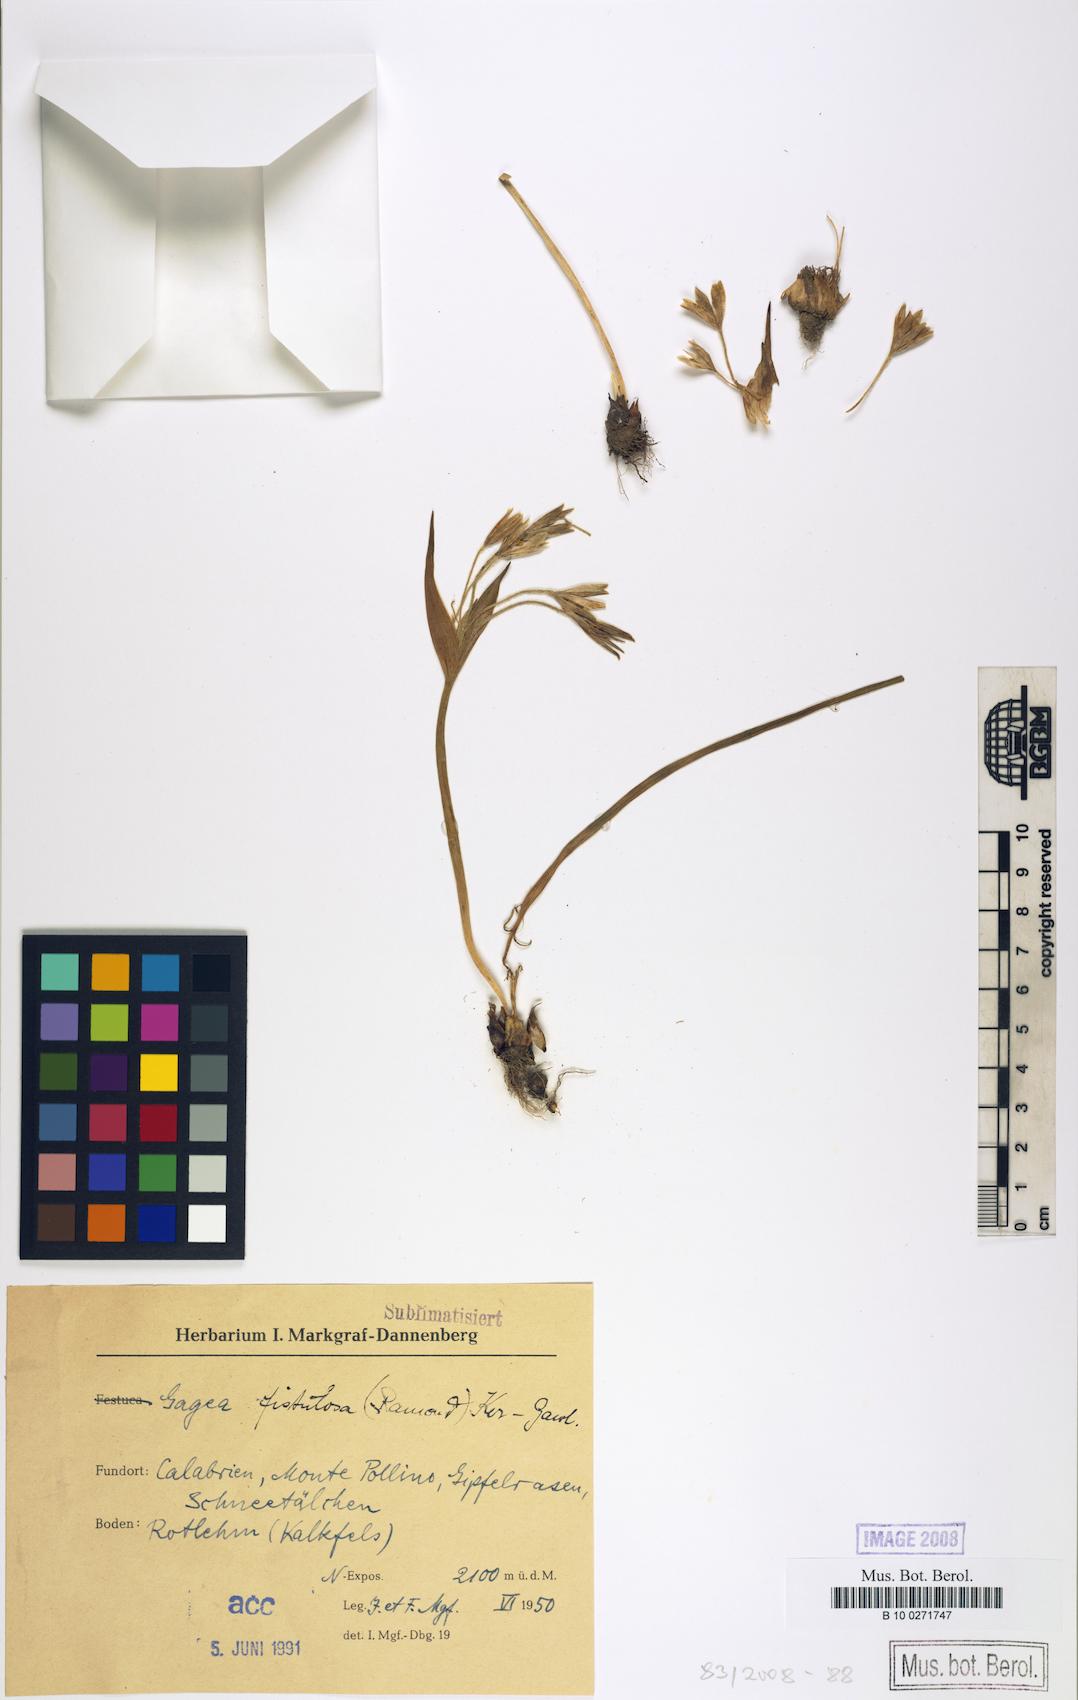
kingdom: Plantae
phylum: Tracheophyta
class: Liliopsida
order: Liliales
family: Liliaceae
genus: Gagea
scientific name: Gagea bohemica
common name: Early star-of-bethlehem
